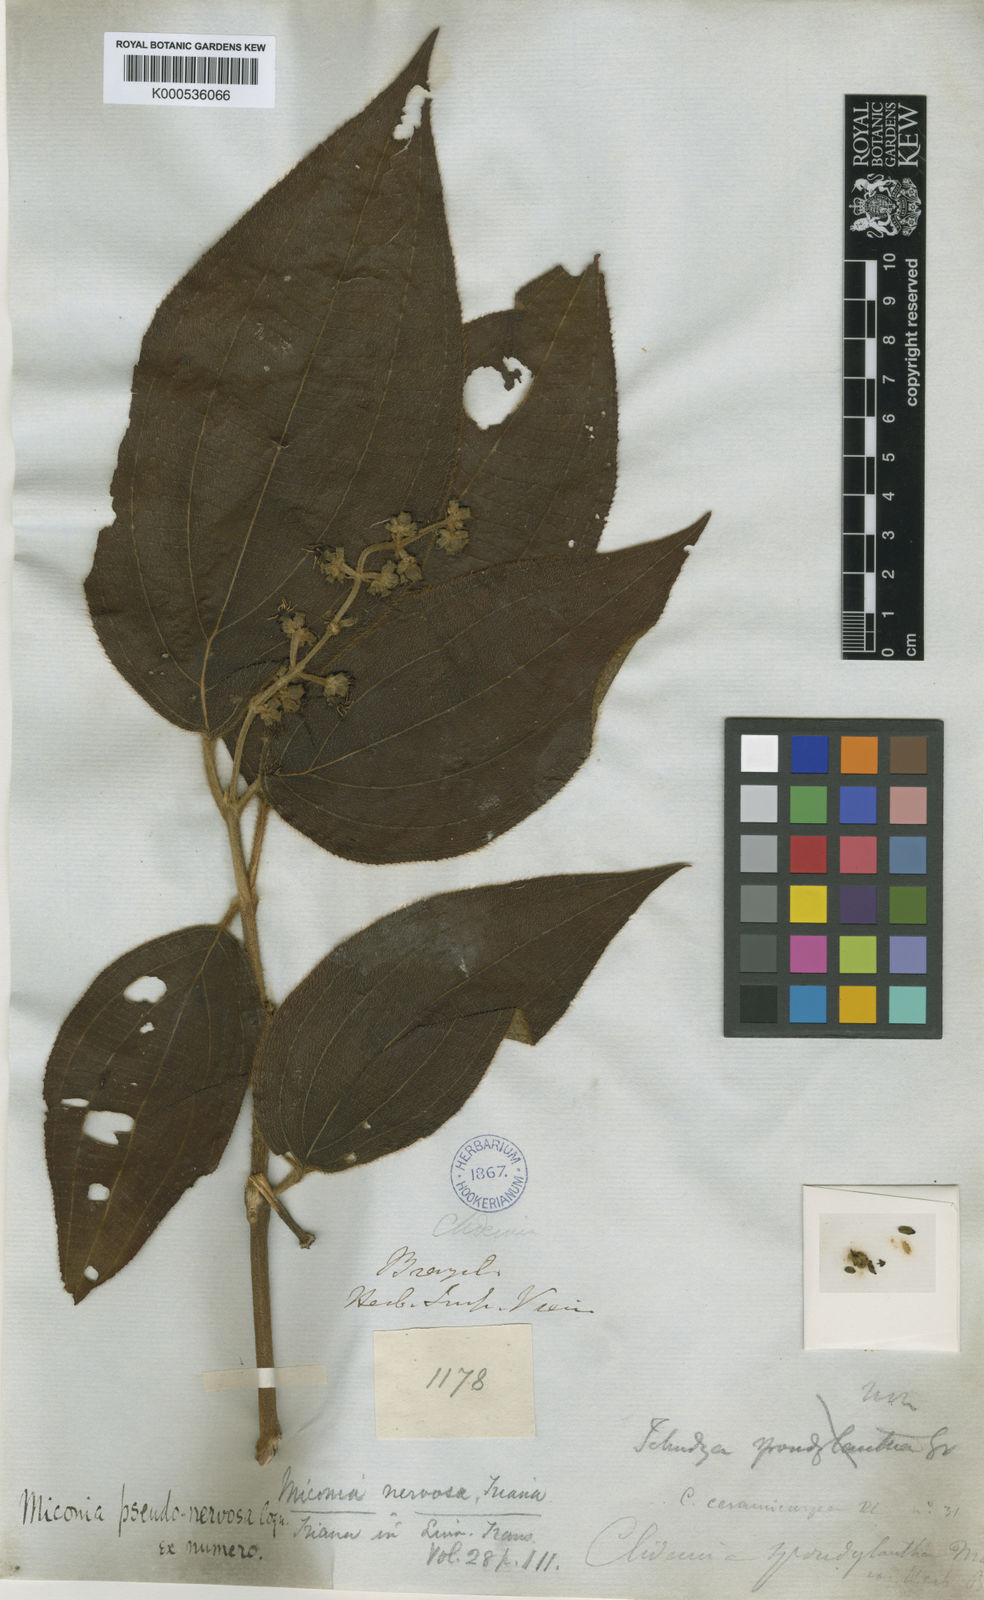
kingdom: Plantae
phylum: Tracheophyta
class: Magnoliopsida
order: Myrtales
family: Melastomataceae
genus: Miconia
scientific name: Miconia pseudonervosa
